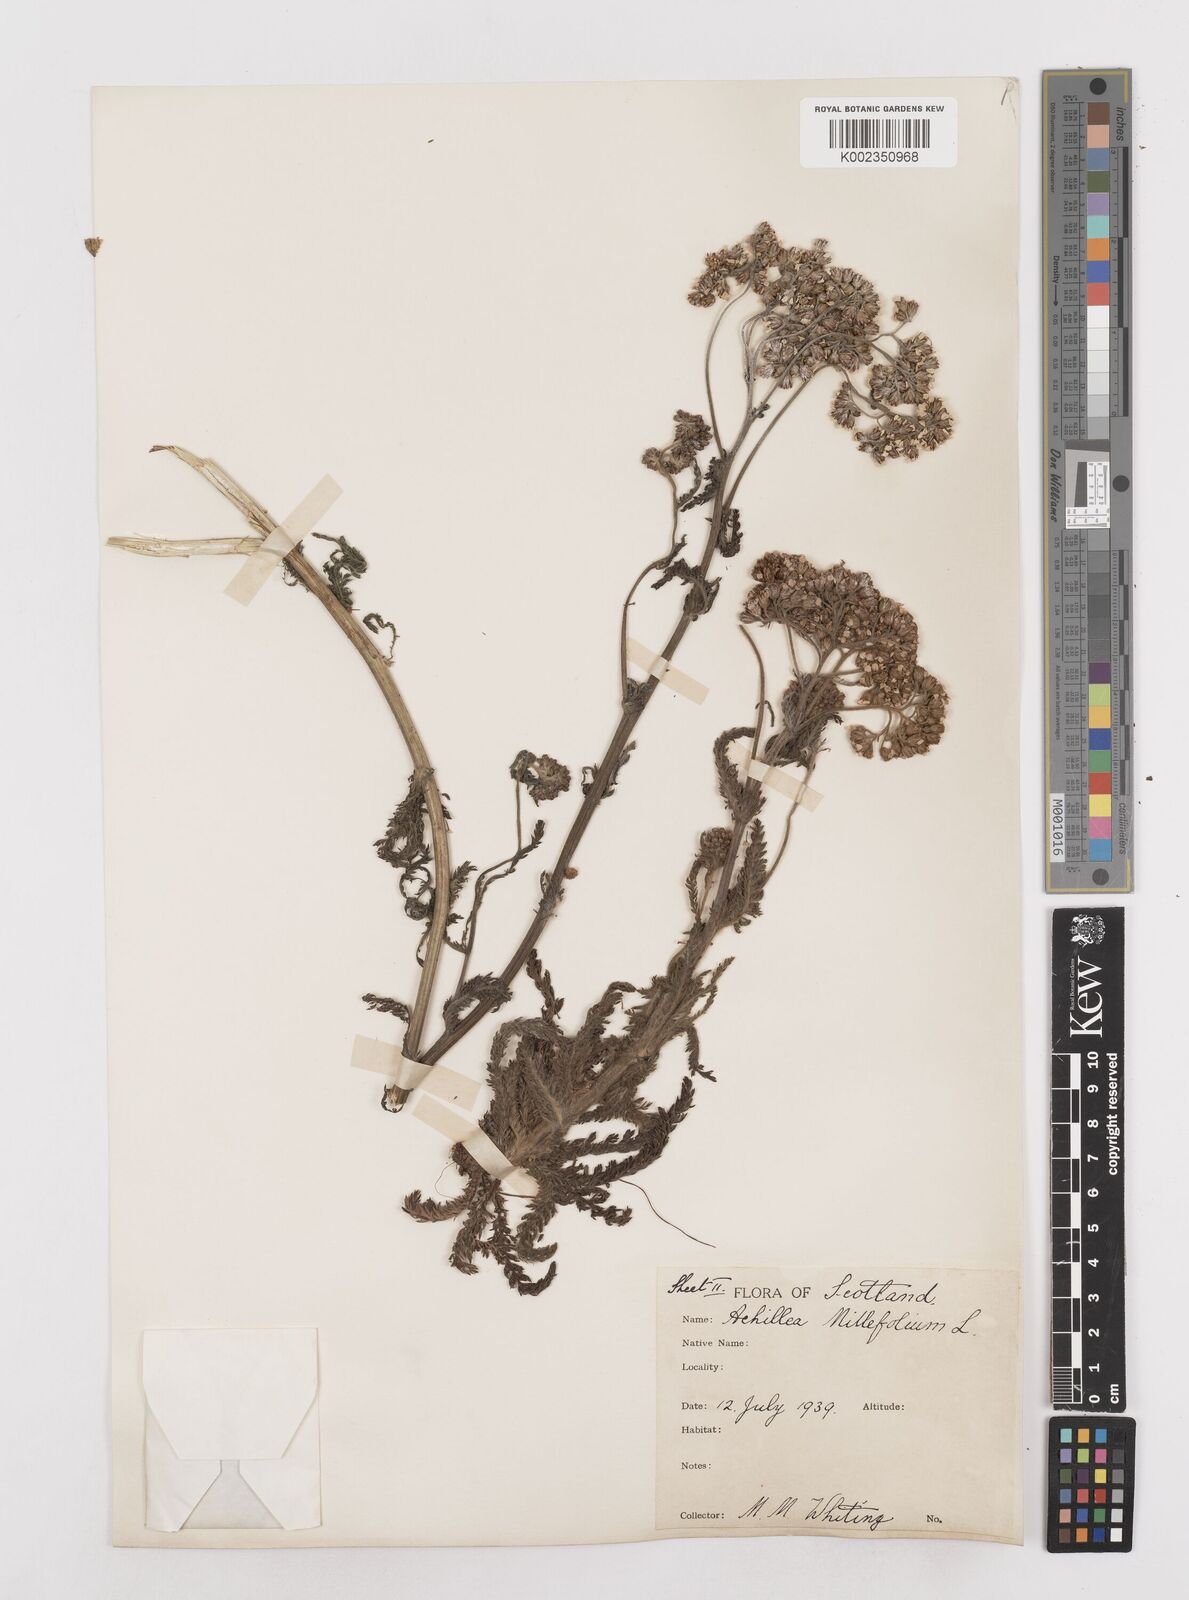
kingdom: Plantae
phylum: Tracheophyta
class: Magnoliopsida
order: Asterales
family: Asteraceae
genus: Achillea
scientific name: Achillea millefolium
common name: Yarrow
